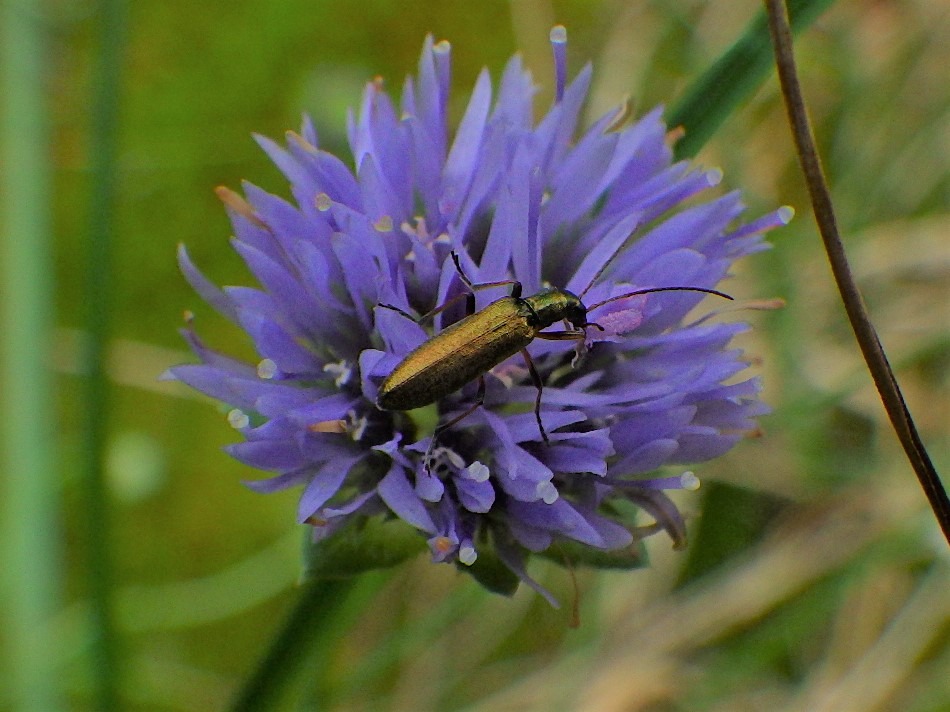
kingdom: Animalia
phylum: Arthropoda
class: Insecta
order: Coleoptera
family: Oedemeridae
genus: Chrysanthia
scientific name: Chrysanthia geniculata
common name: Grøn solbille
